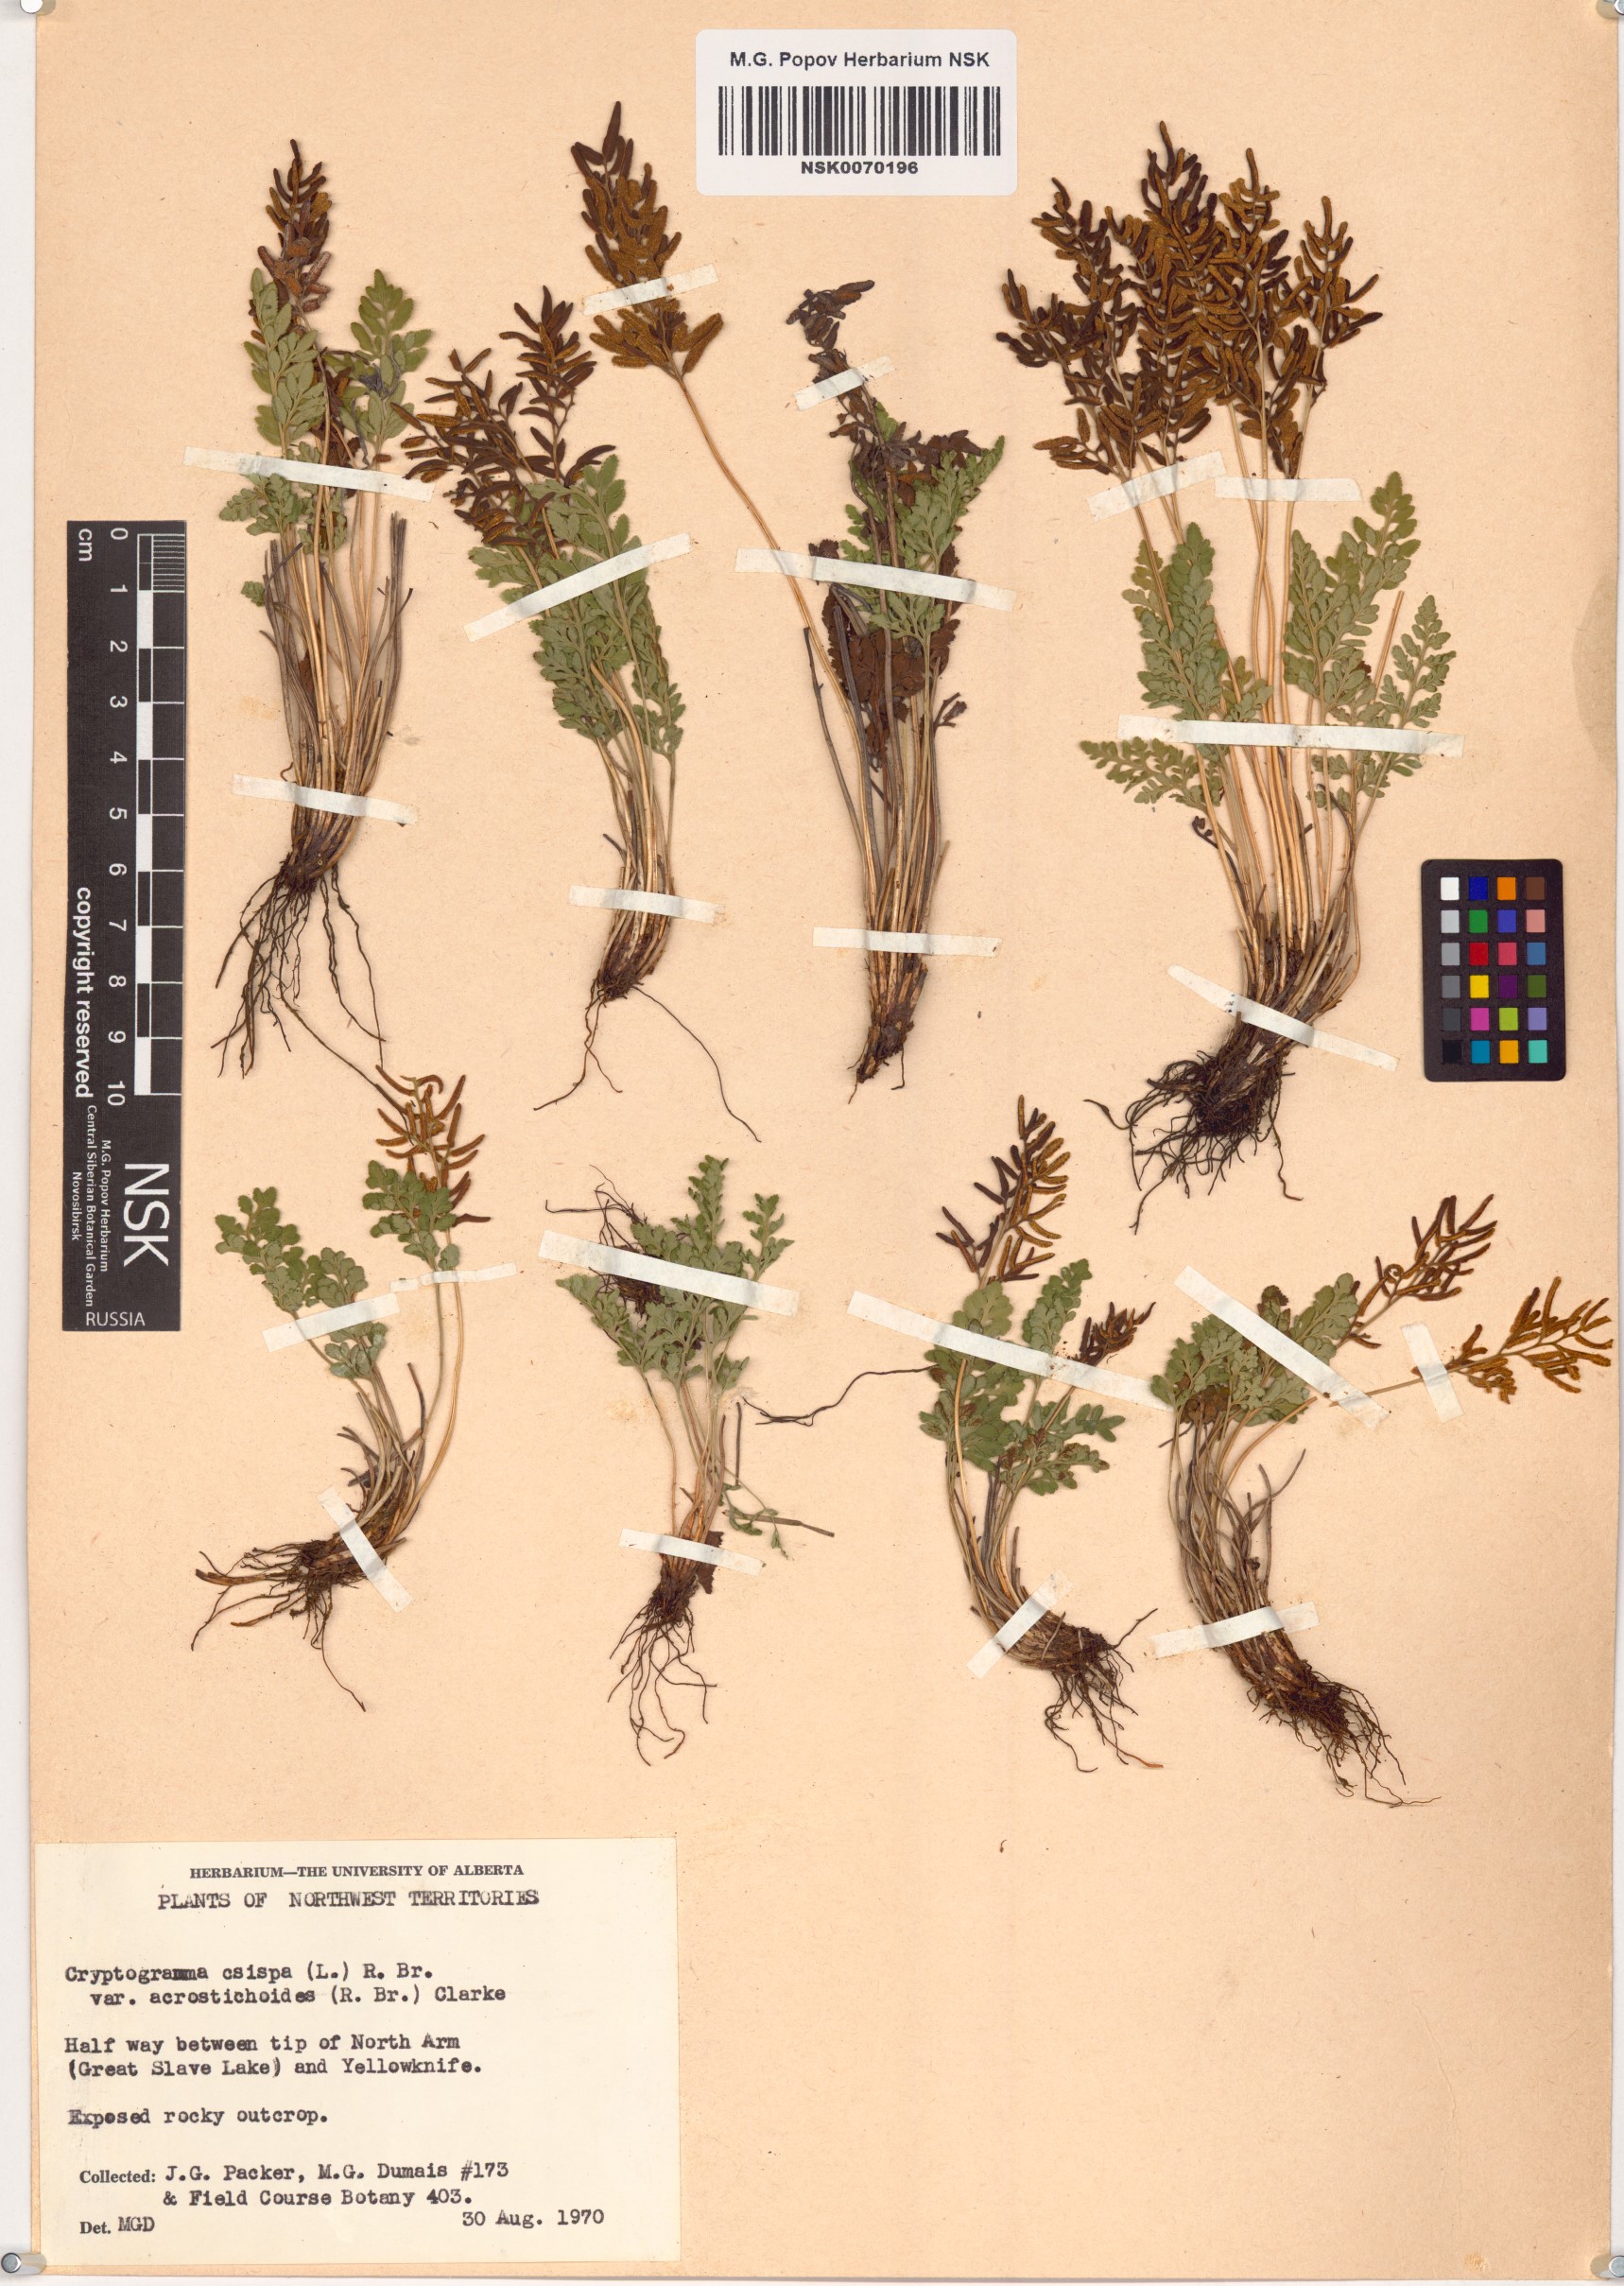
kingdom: Plantae
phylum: Tracheophyta
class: Polypodiopsida
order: Polypodiales
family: Pteridaceae
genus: Cryptogramma
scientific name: Cryptogramma acrostichoides
